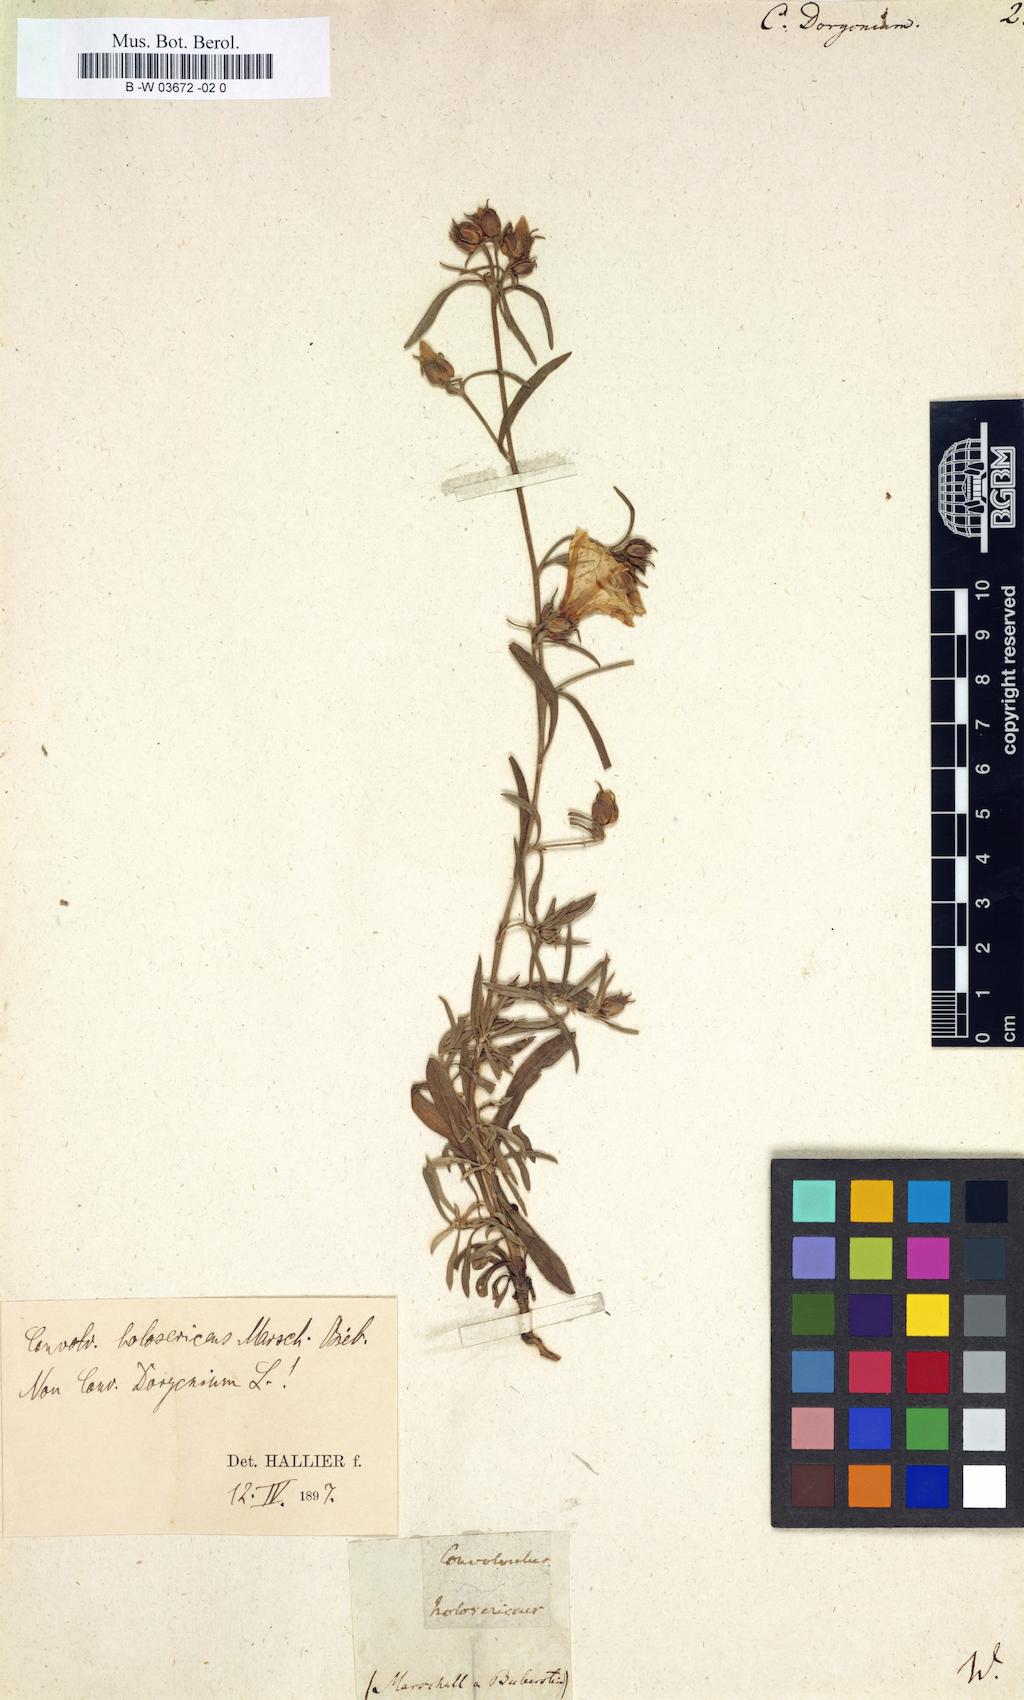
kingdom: Plantae
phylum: Tracheophyta
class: Magnoliopsida
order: Solanales
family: Convolvulaceae
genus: Convolvulus
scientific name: Convolvulus dorycnium
